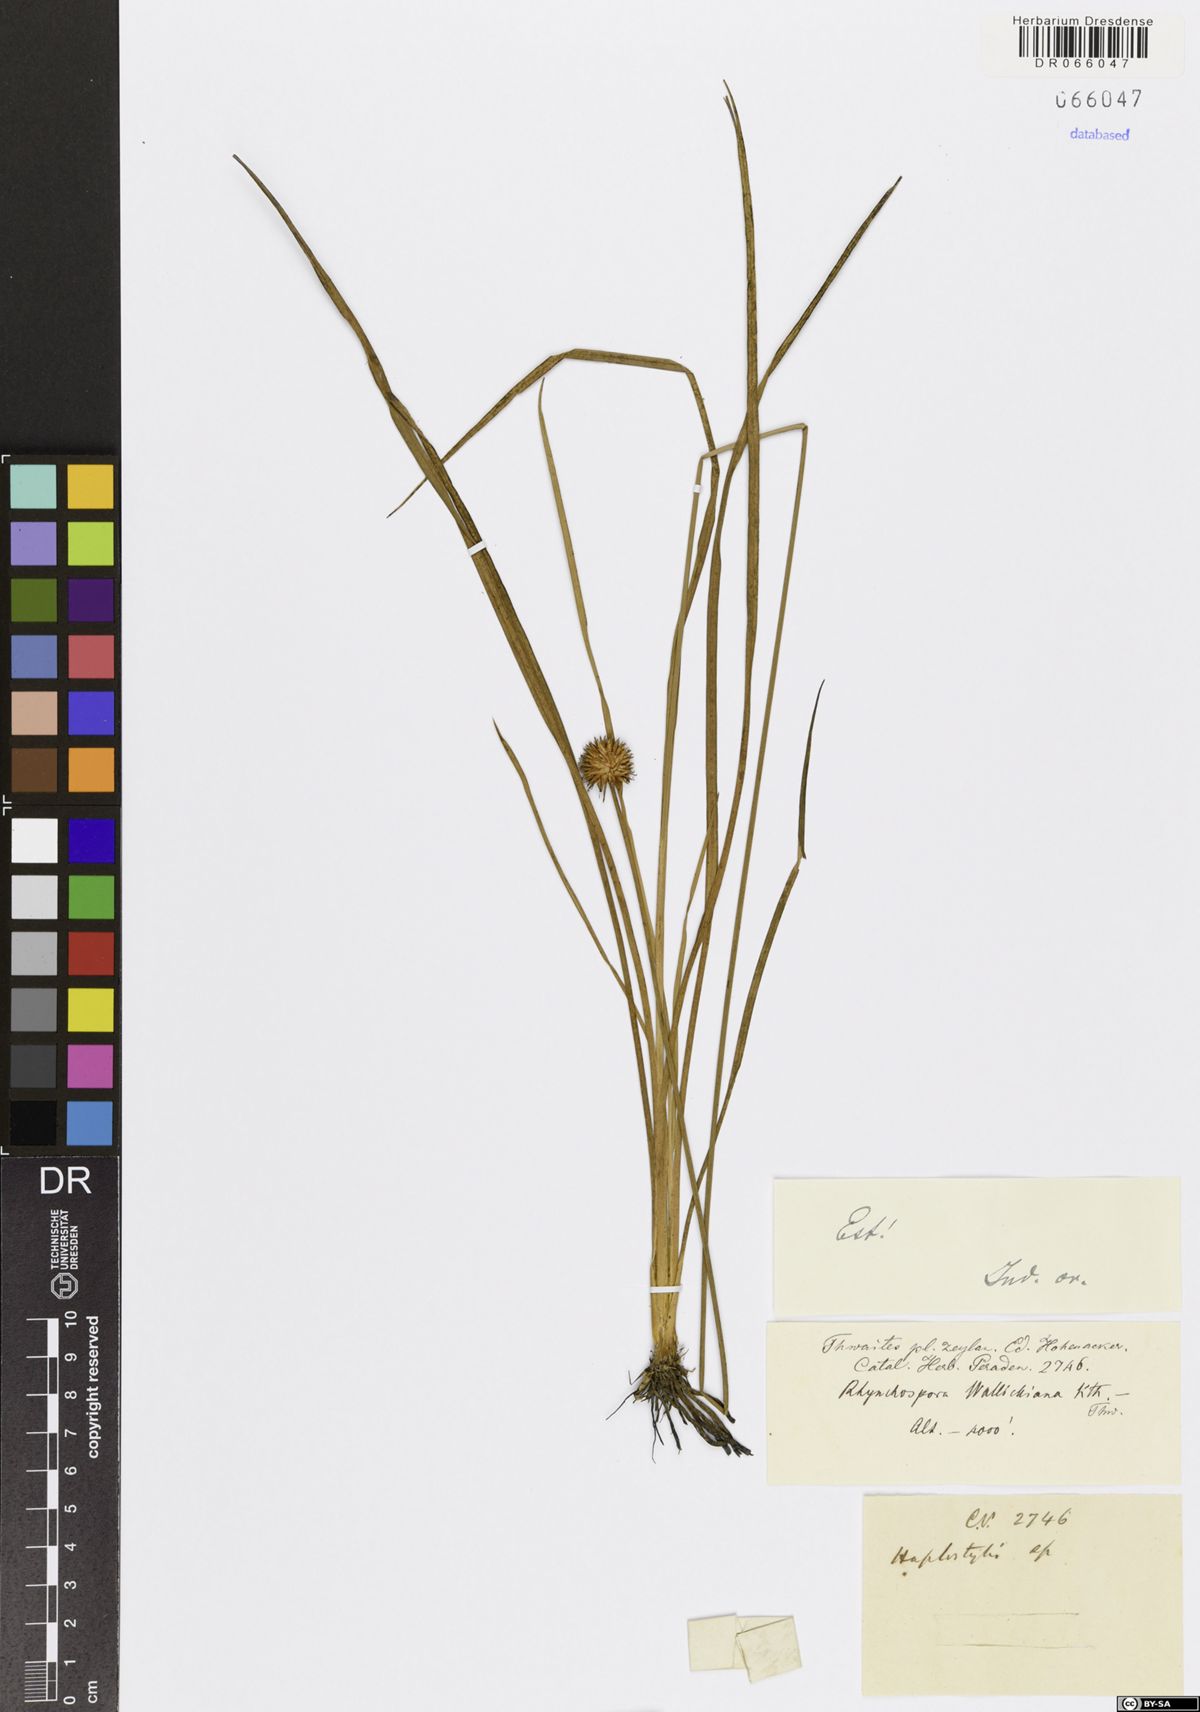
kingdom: Plantae
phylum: Tracheophyta
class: Liliopsida
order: Poales
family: Cyperaceae
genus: Rhynchospora
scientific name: Rhynchospora rubra
